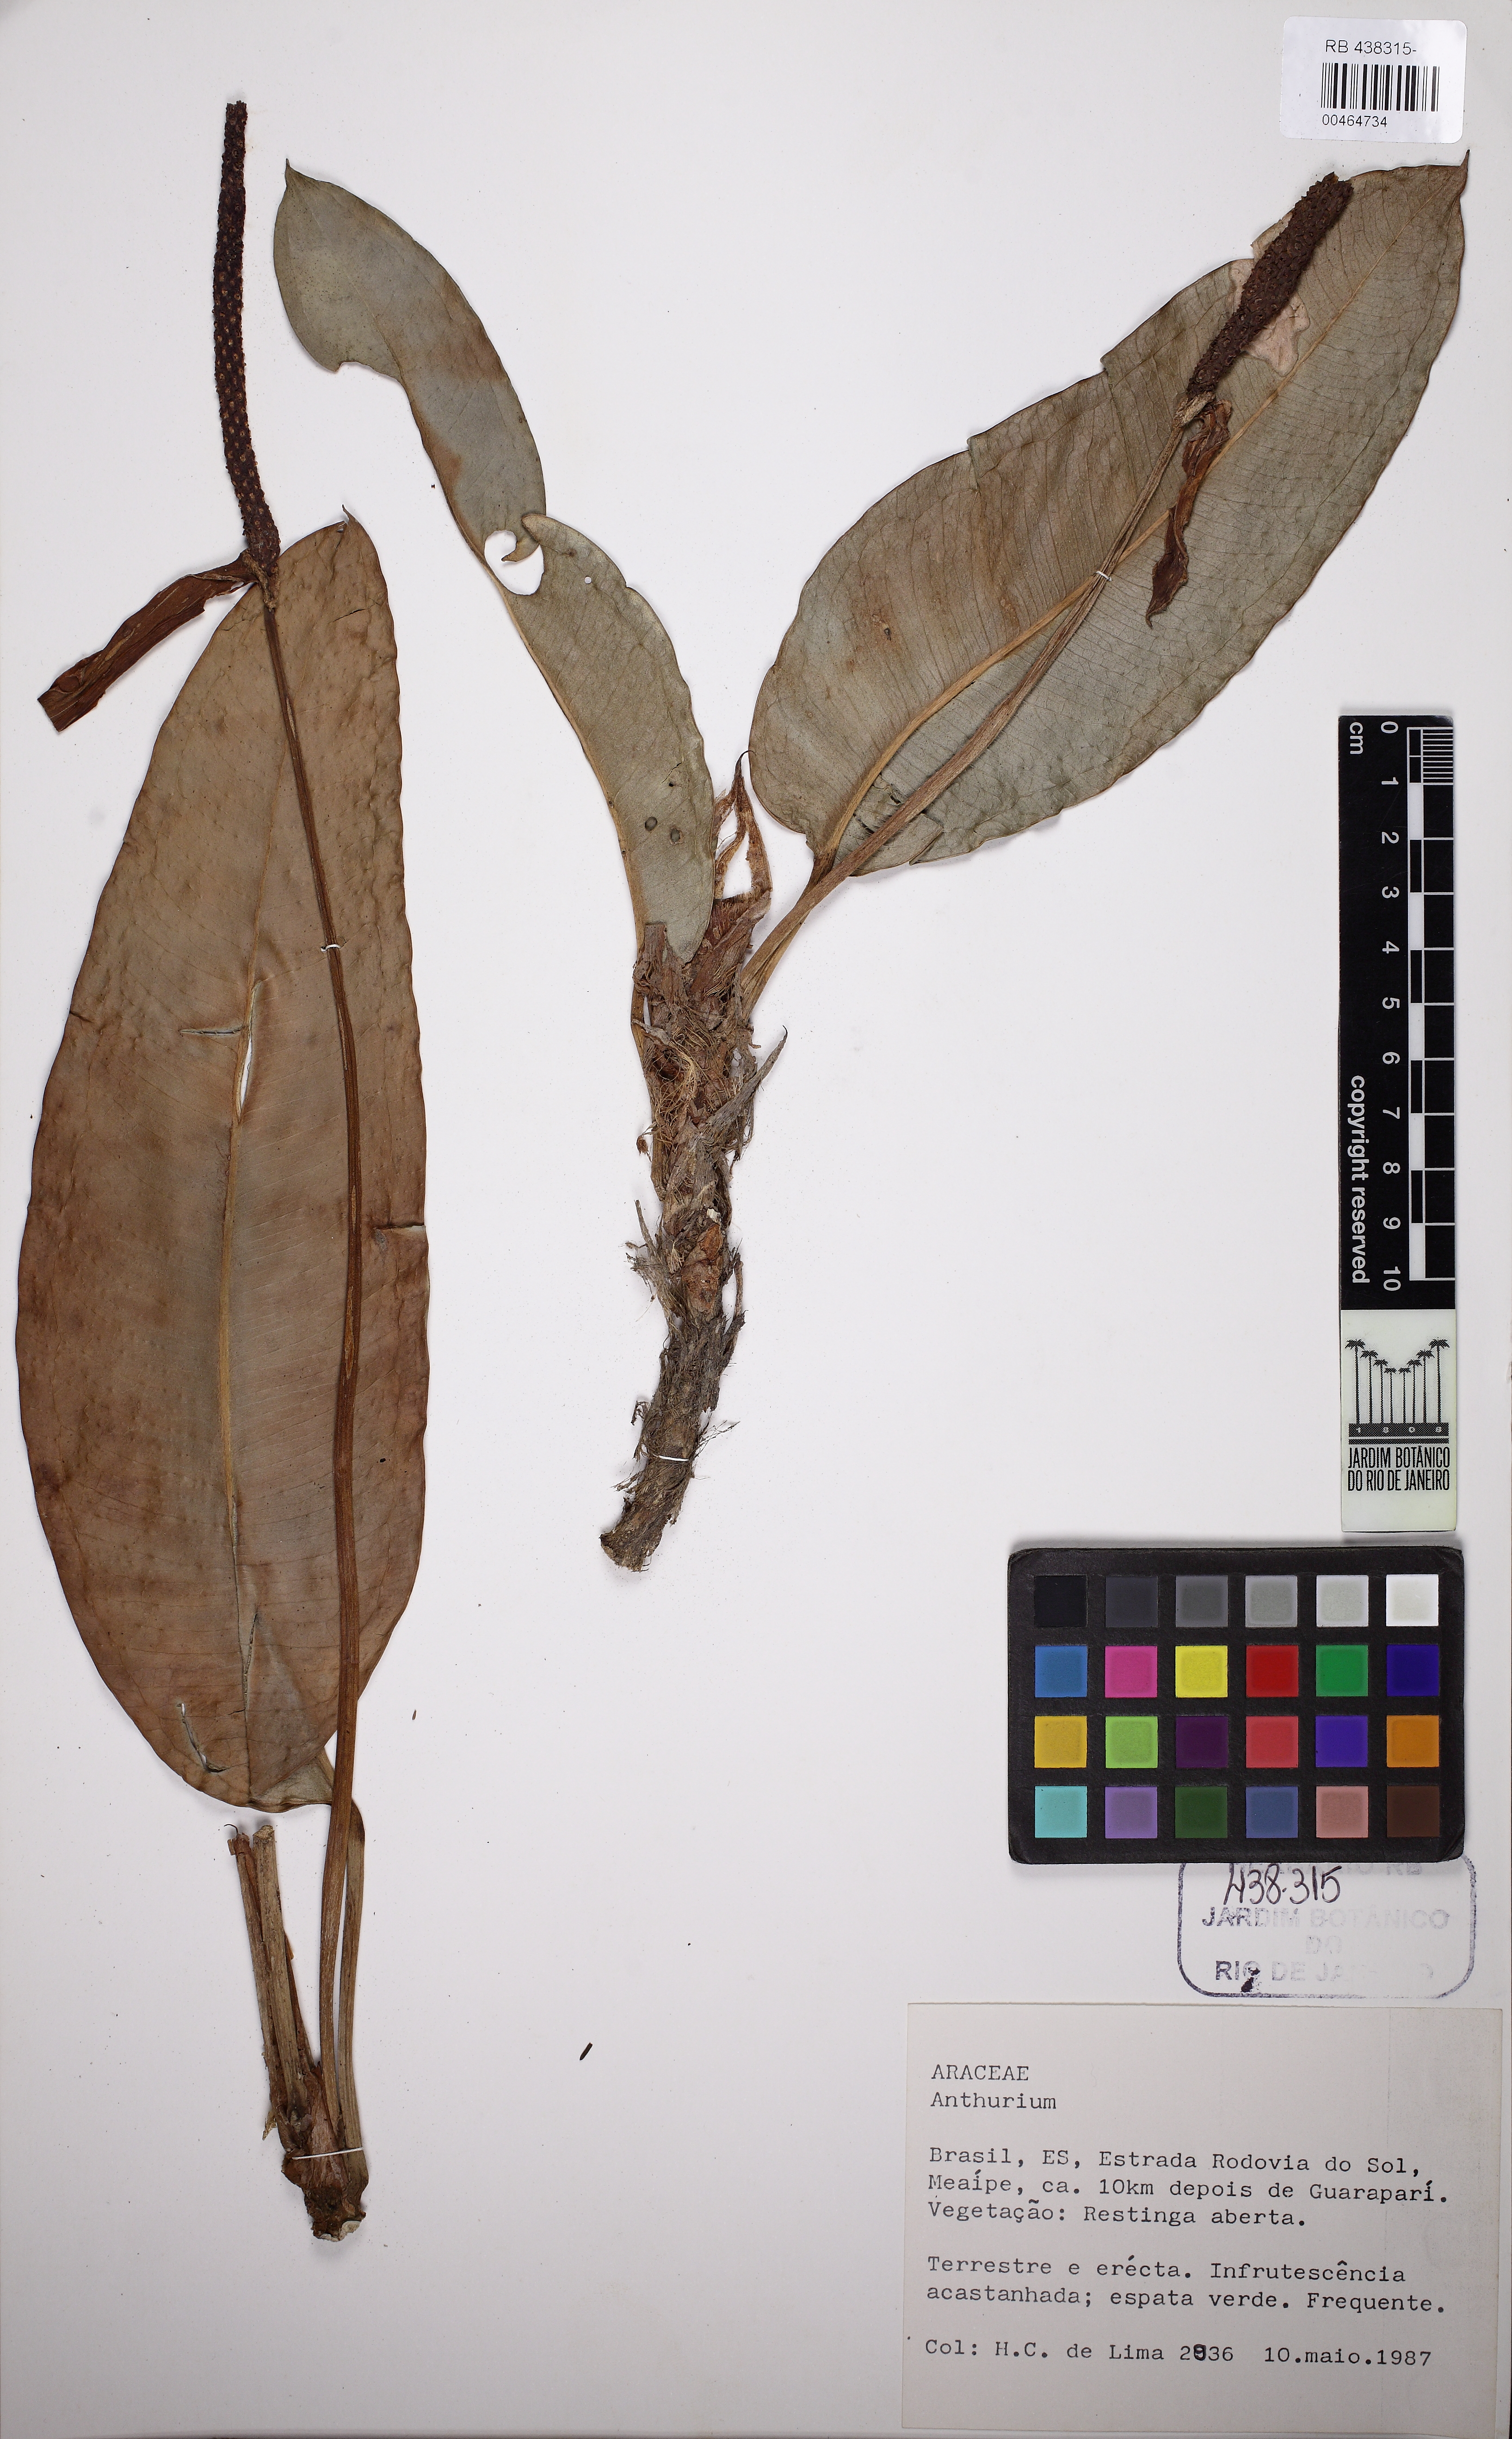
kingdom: Plantae
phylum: Tracheophyta
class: Liliopsida
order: Alismatales
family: Araceae
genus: Anthurium
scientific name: Anthurium parasiticum
